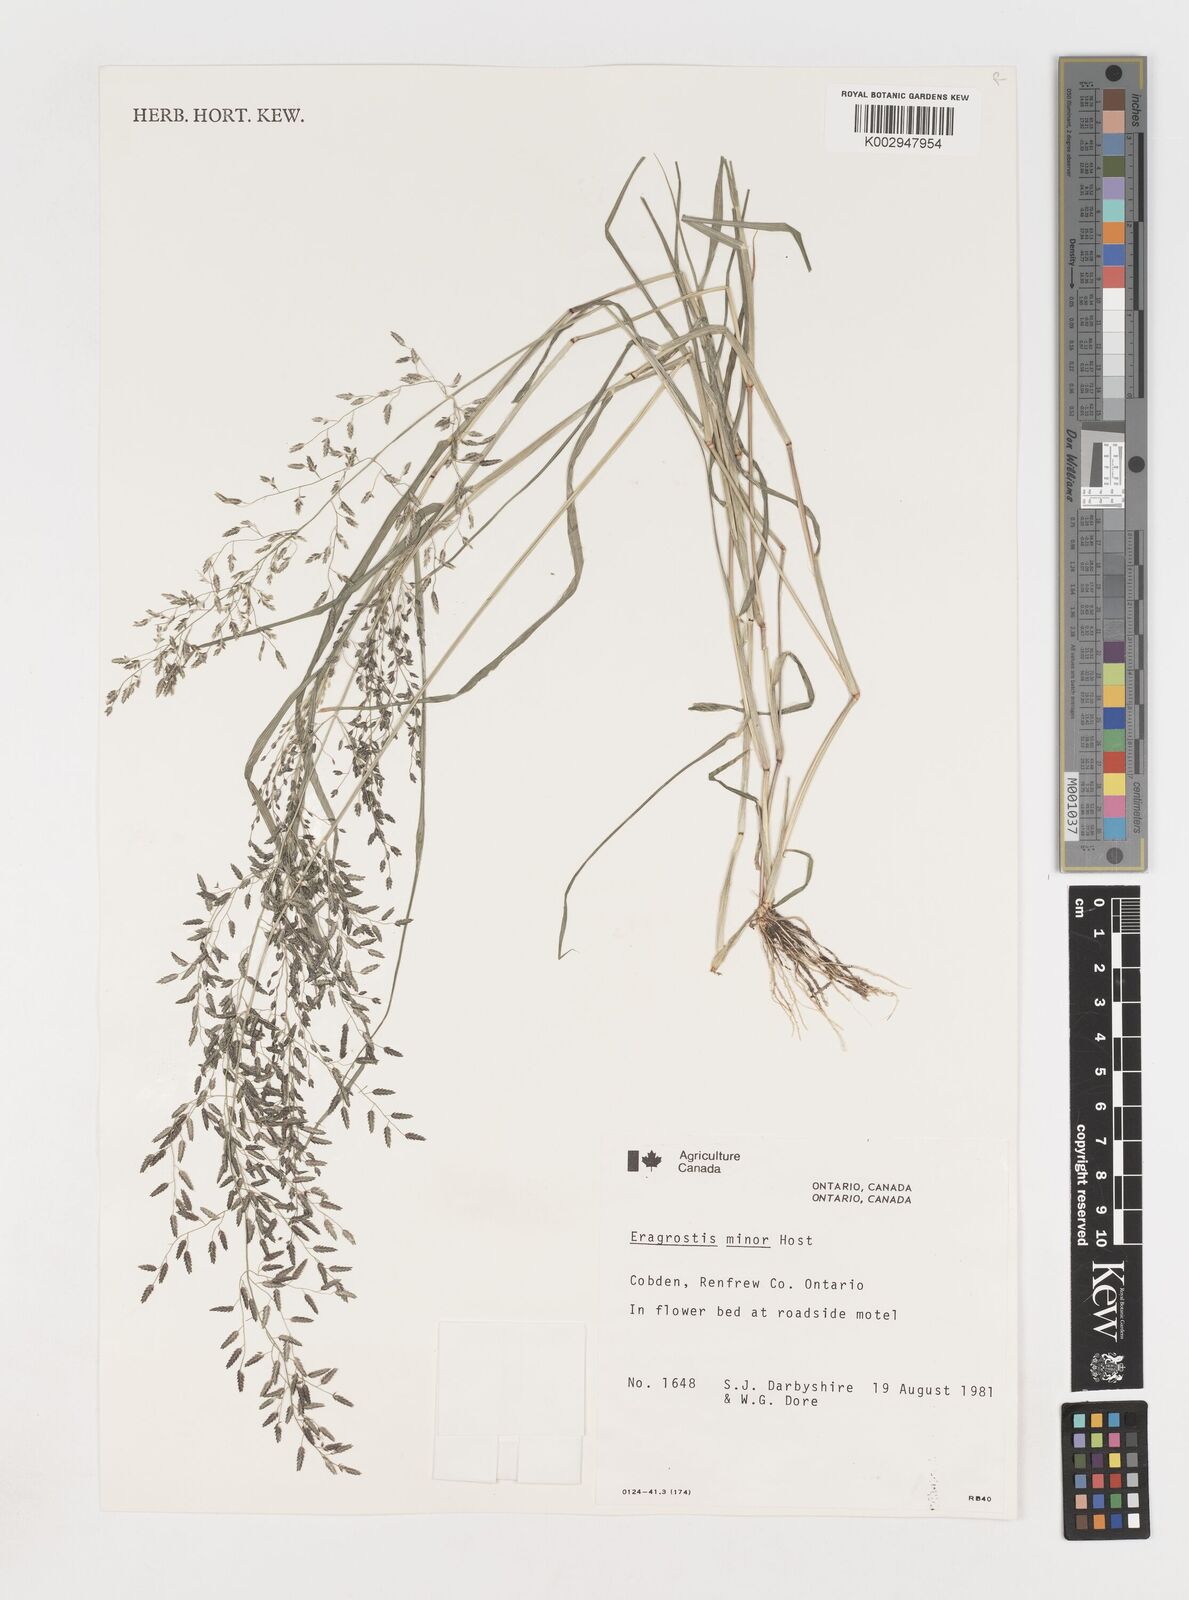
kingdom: Plantae
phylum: Tracheophyta
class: Liliopsida
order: Poales
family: Poaceae
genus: Eragrostis
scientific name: Eragrostis minor
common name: Small love-grass
